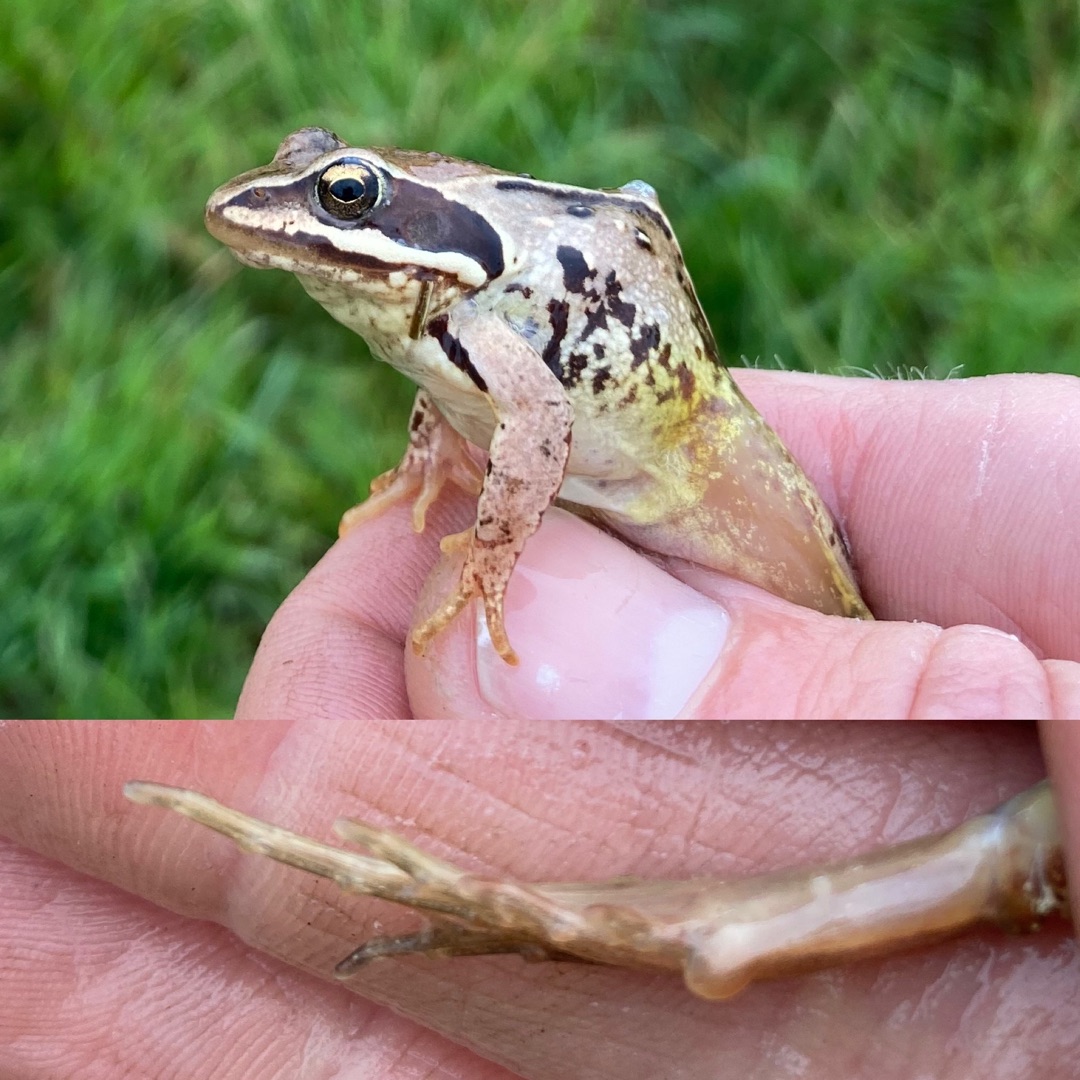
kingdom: Animalia
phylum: Chordata
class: Amphibia
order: Anura
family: Ranidae
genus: Rana
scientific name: Rana arvalis
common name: Spidssnudet frø
